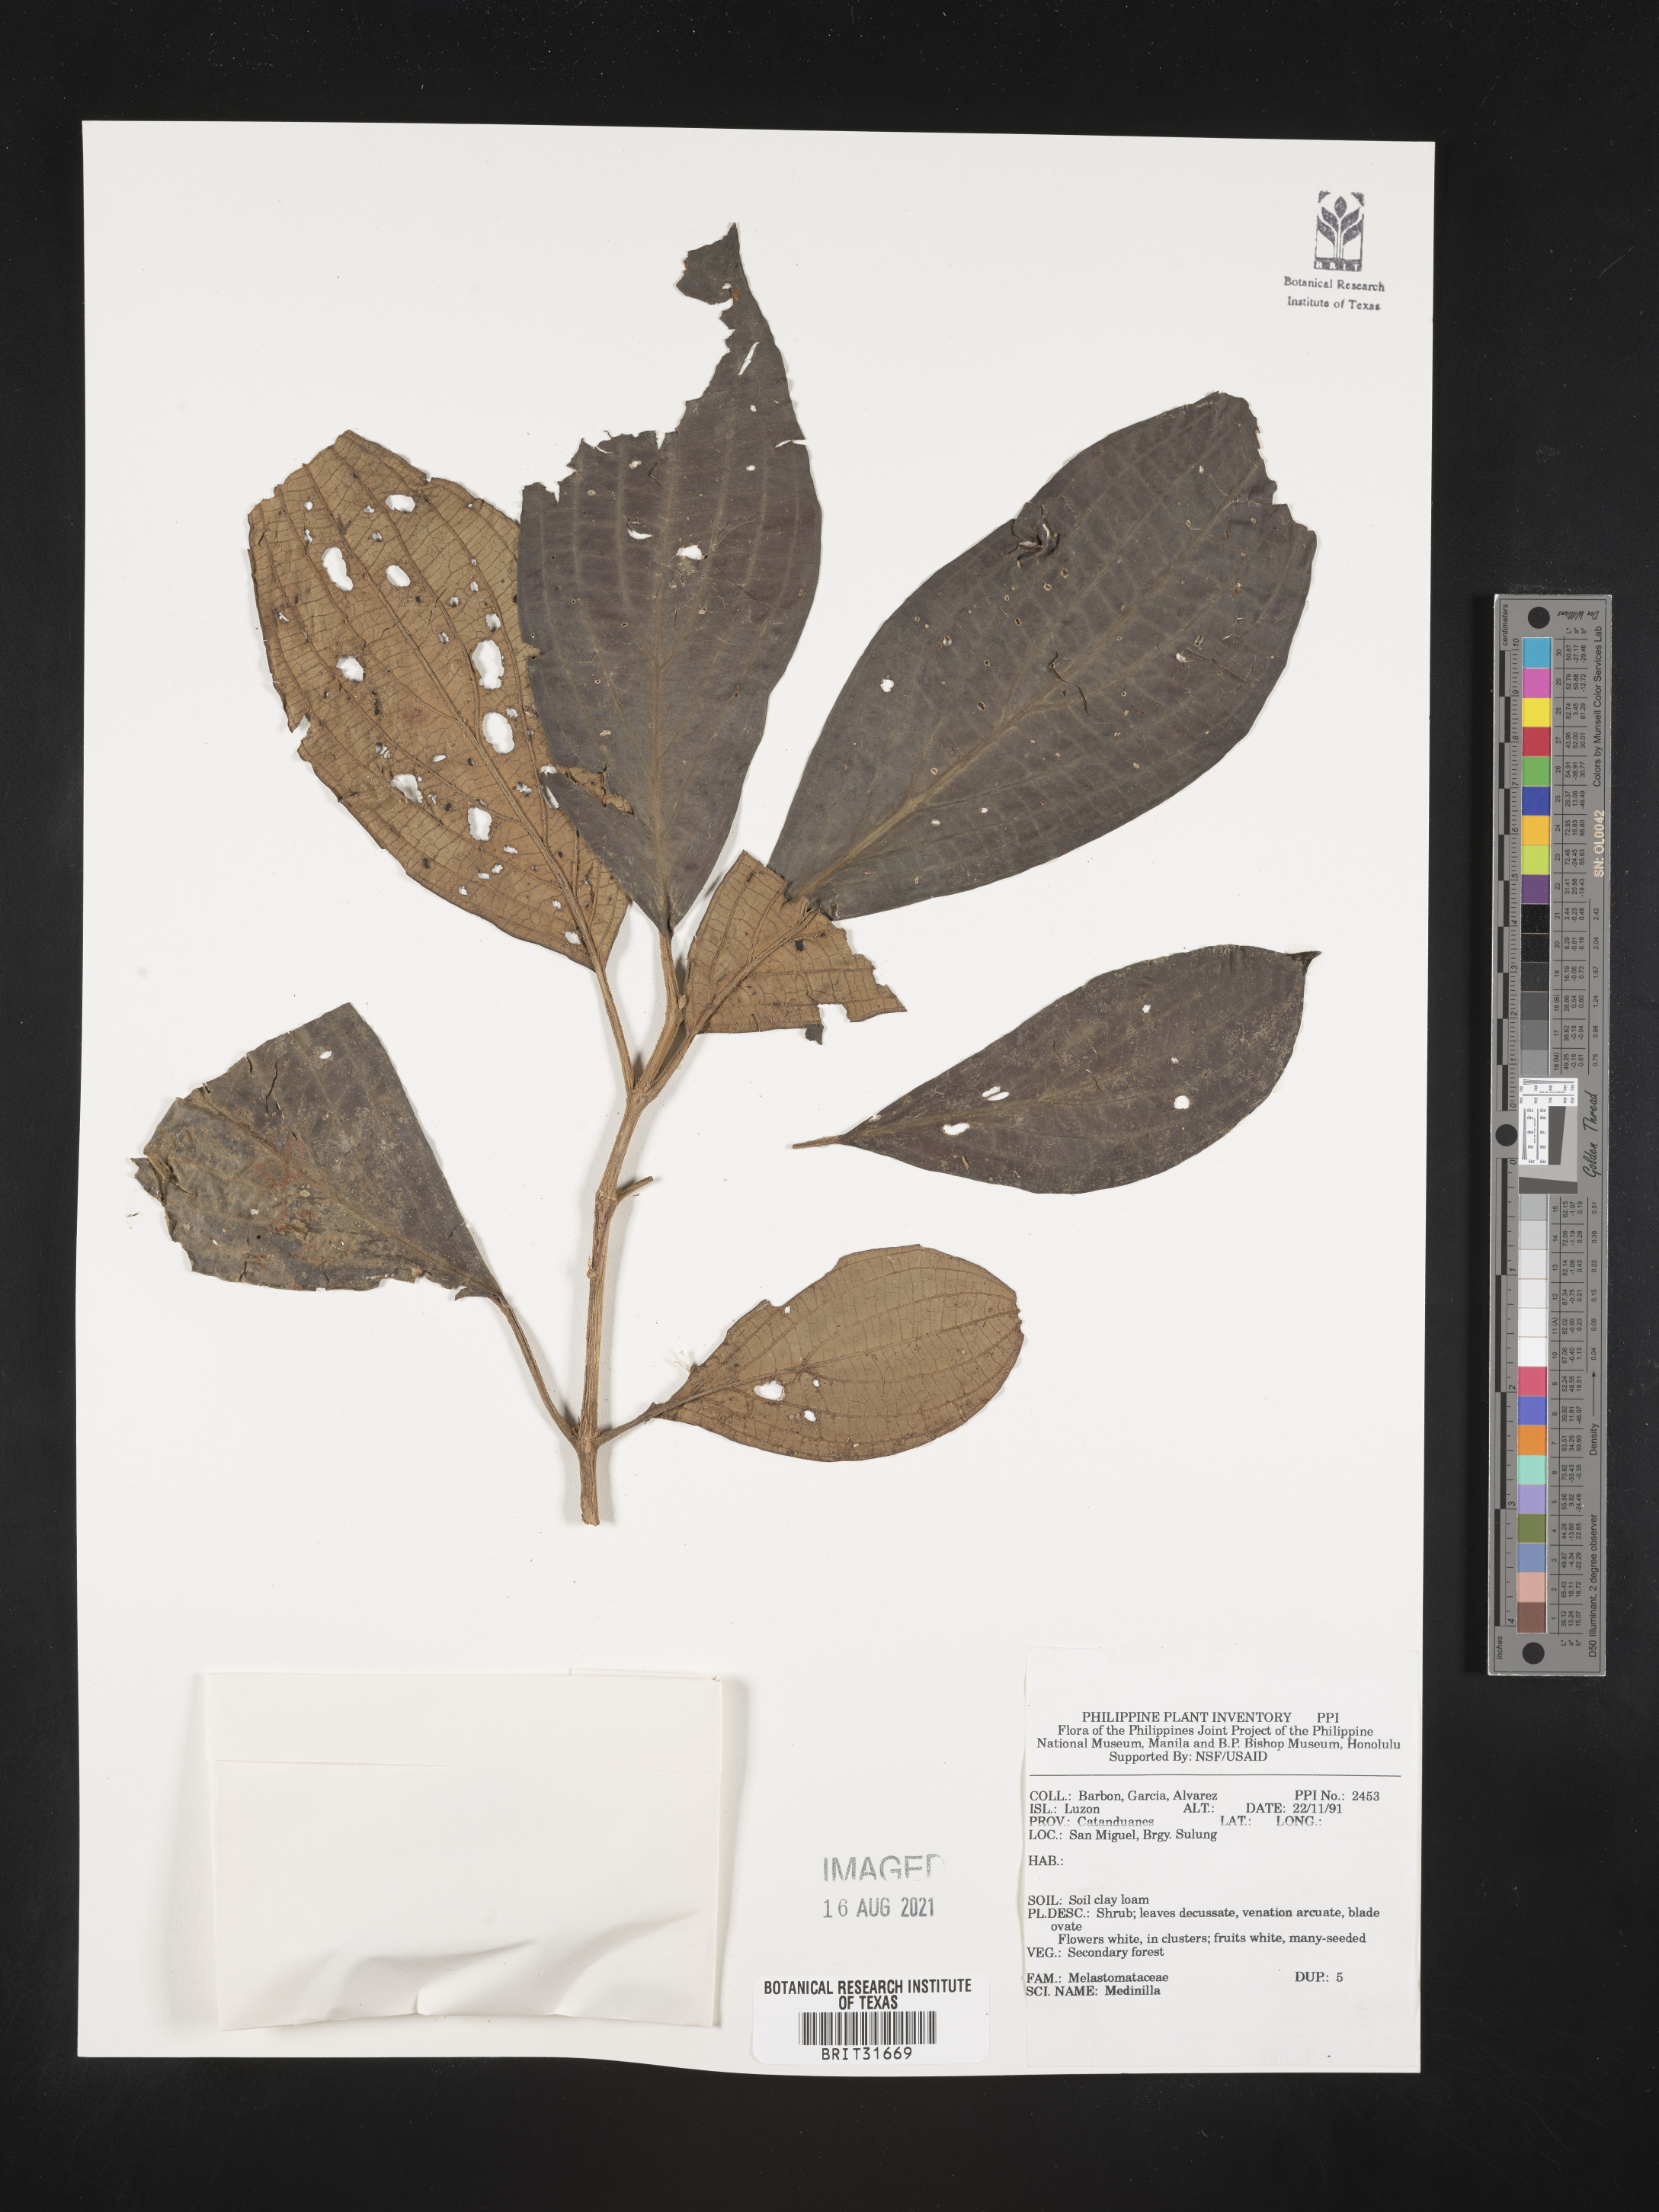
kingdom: Plantae
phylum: Tracheophyta
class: Magnoliopsida
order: Myrtales
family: Melastomataceae
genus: Medinilla
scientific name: Medinilla
